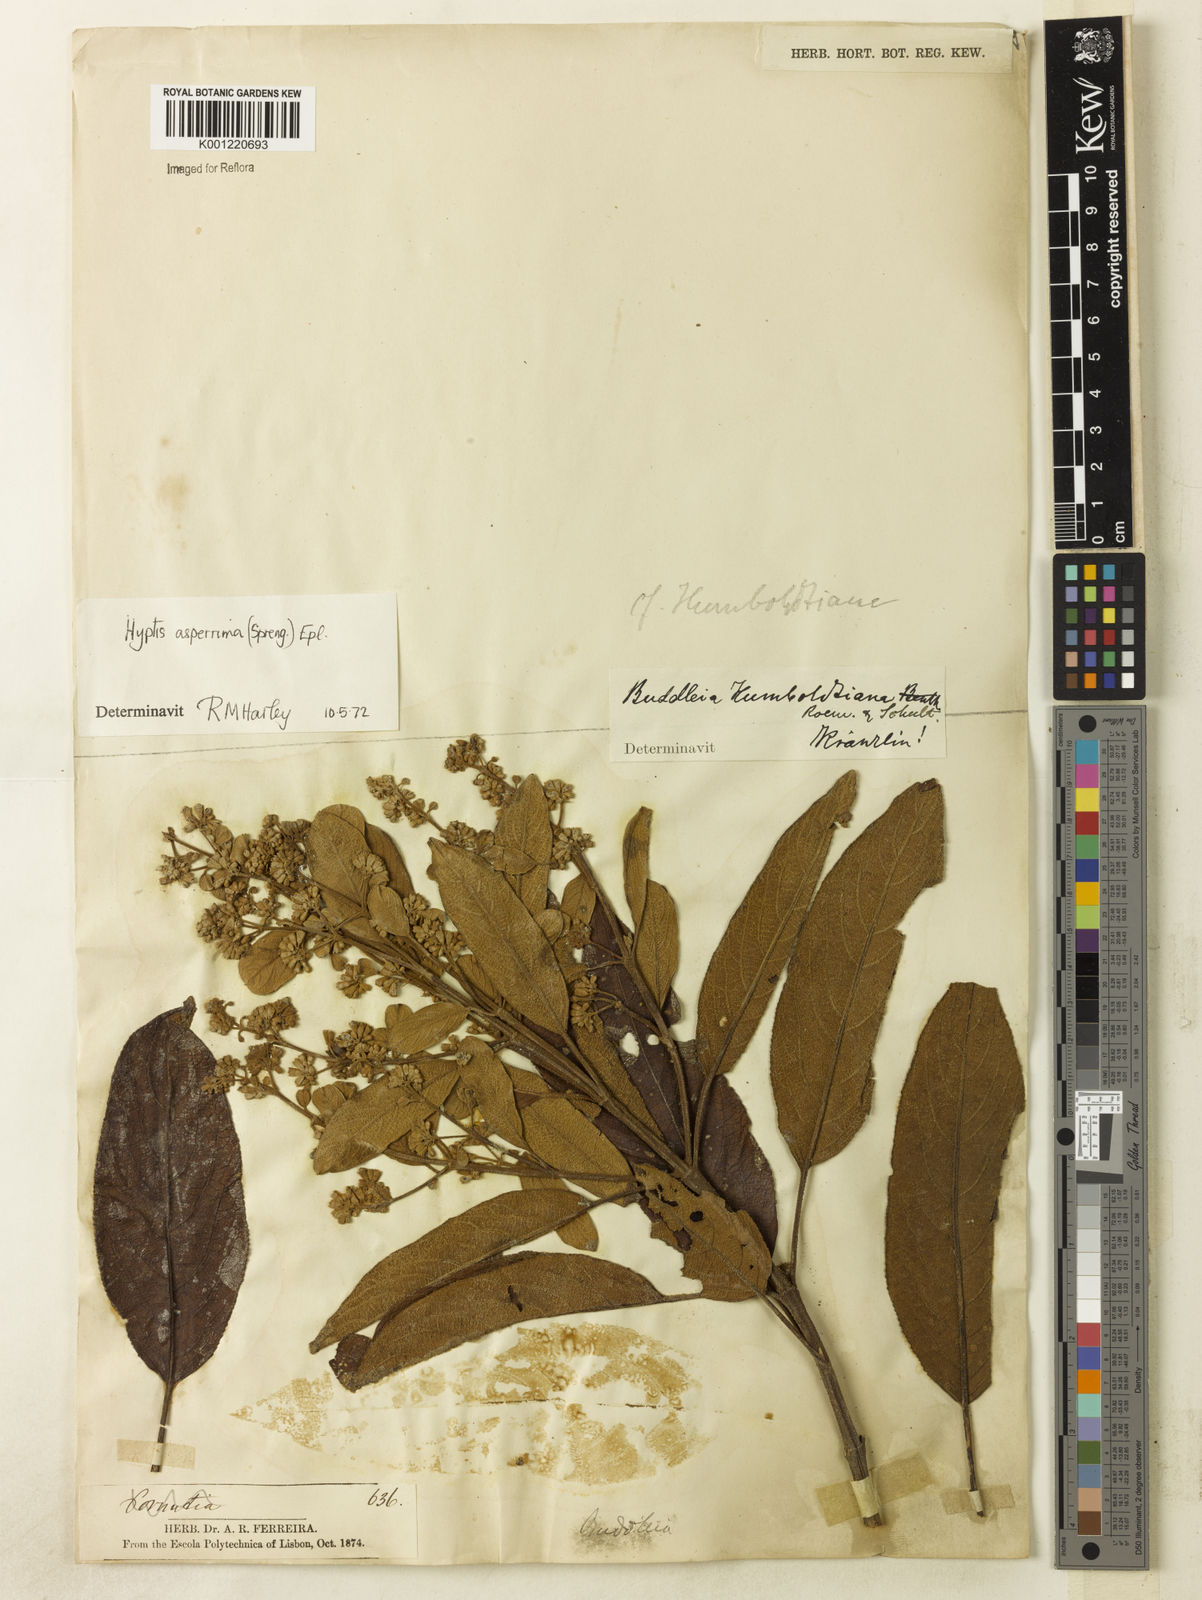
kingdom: Plantae
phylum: Tracheophyta
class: Magnoliopsida
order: Lamiales
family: Lamiaceae
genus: Hyptidendron
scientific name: Hyptidendron asperrimum
